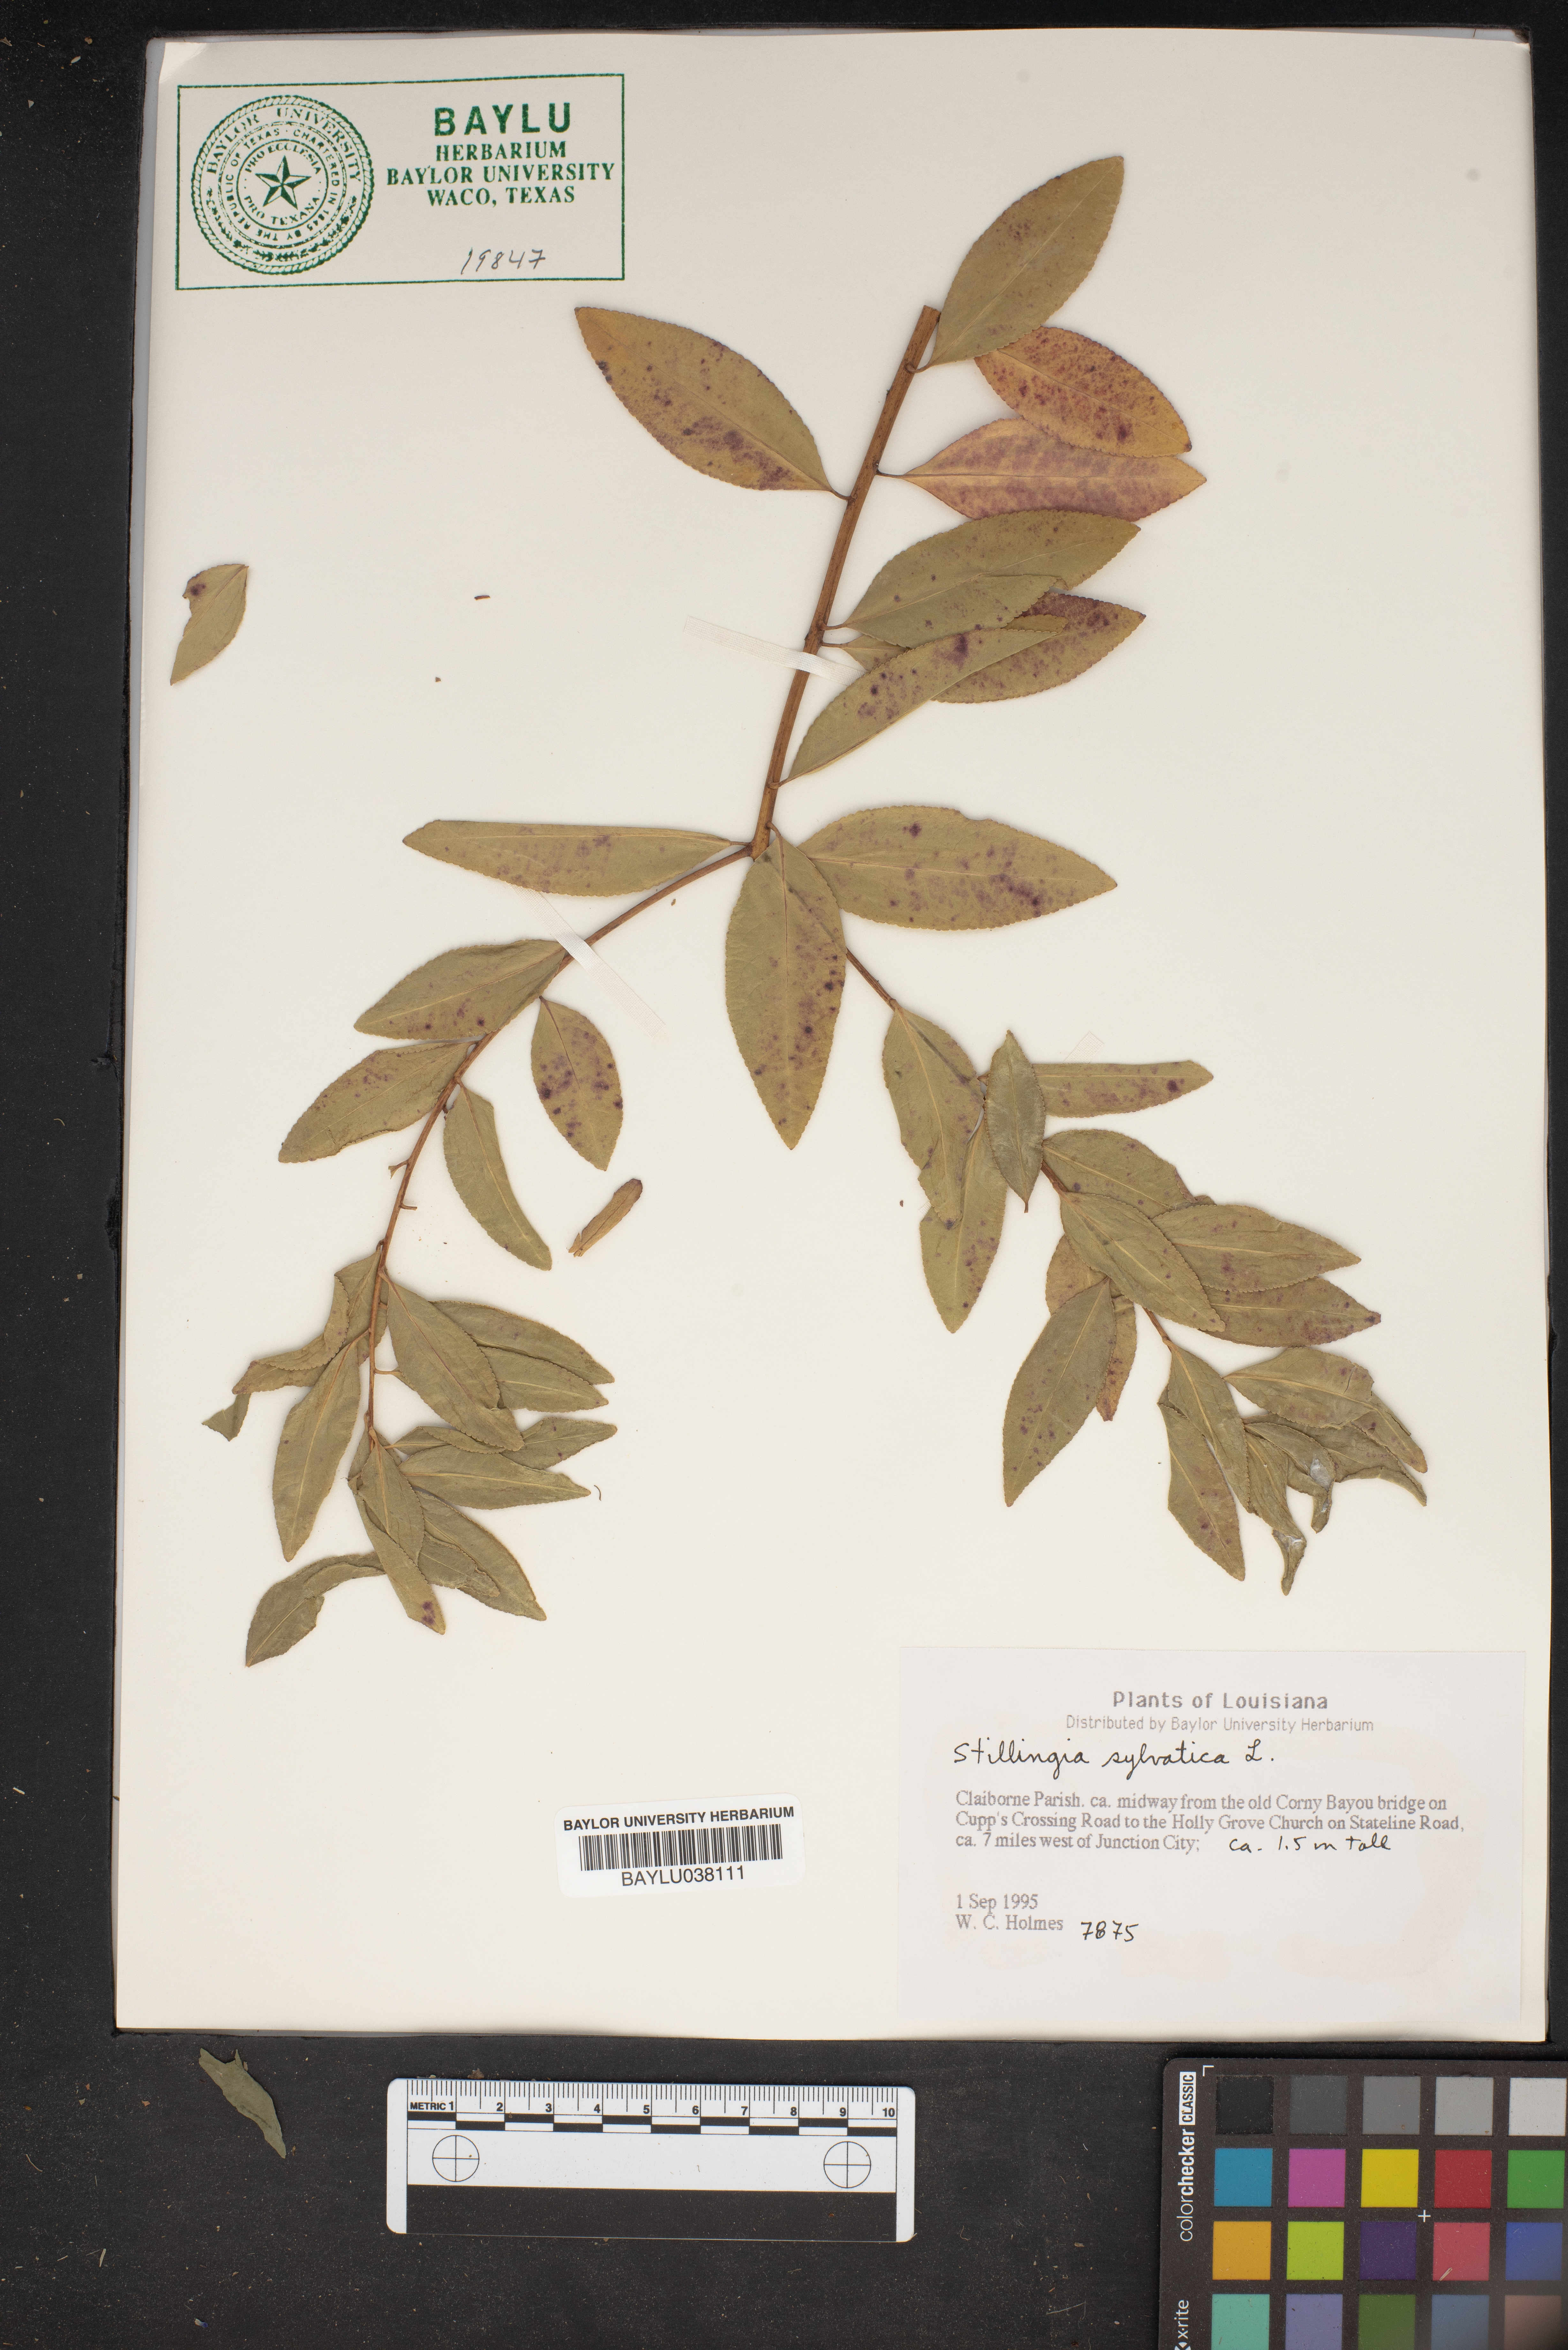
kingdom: Plantae
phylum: Tracheophyta
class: Magnoliopsida
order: Malpighiales
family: Euphorbiaceae
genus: Stillingia
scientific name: Stillingia sylvatica
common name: Queen's-delight
